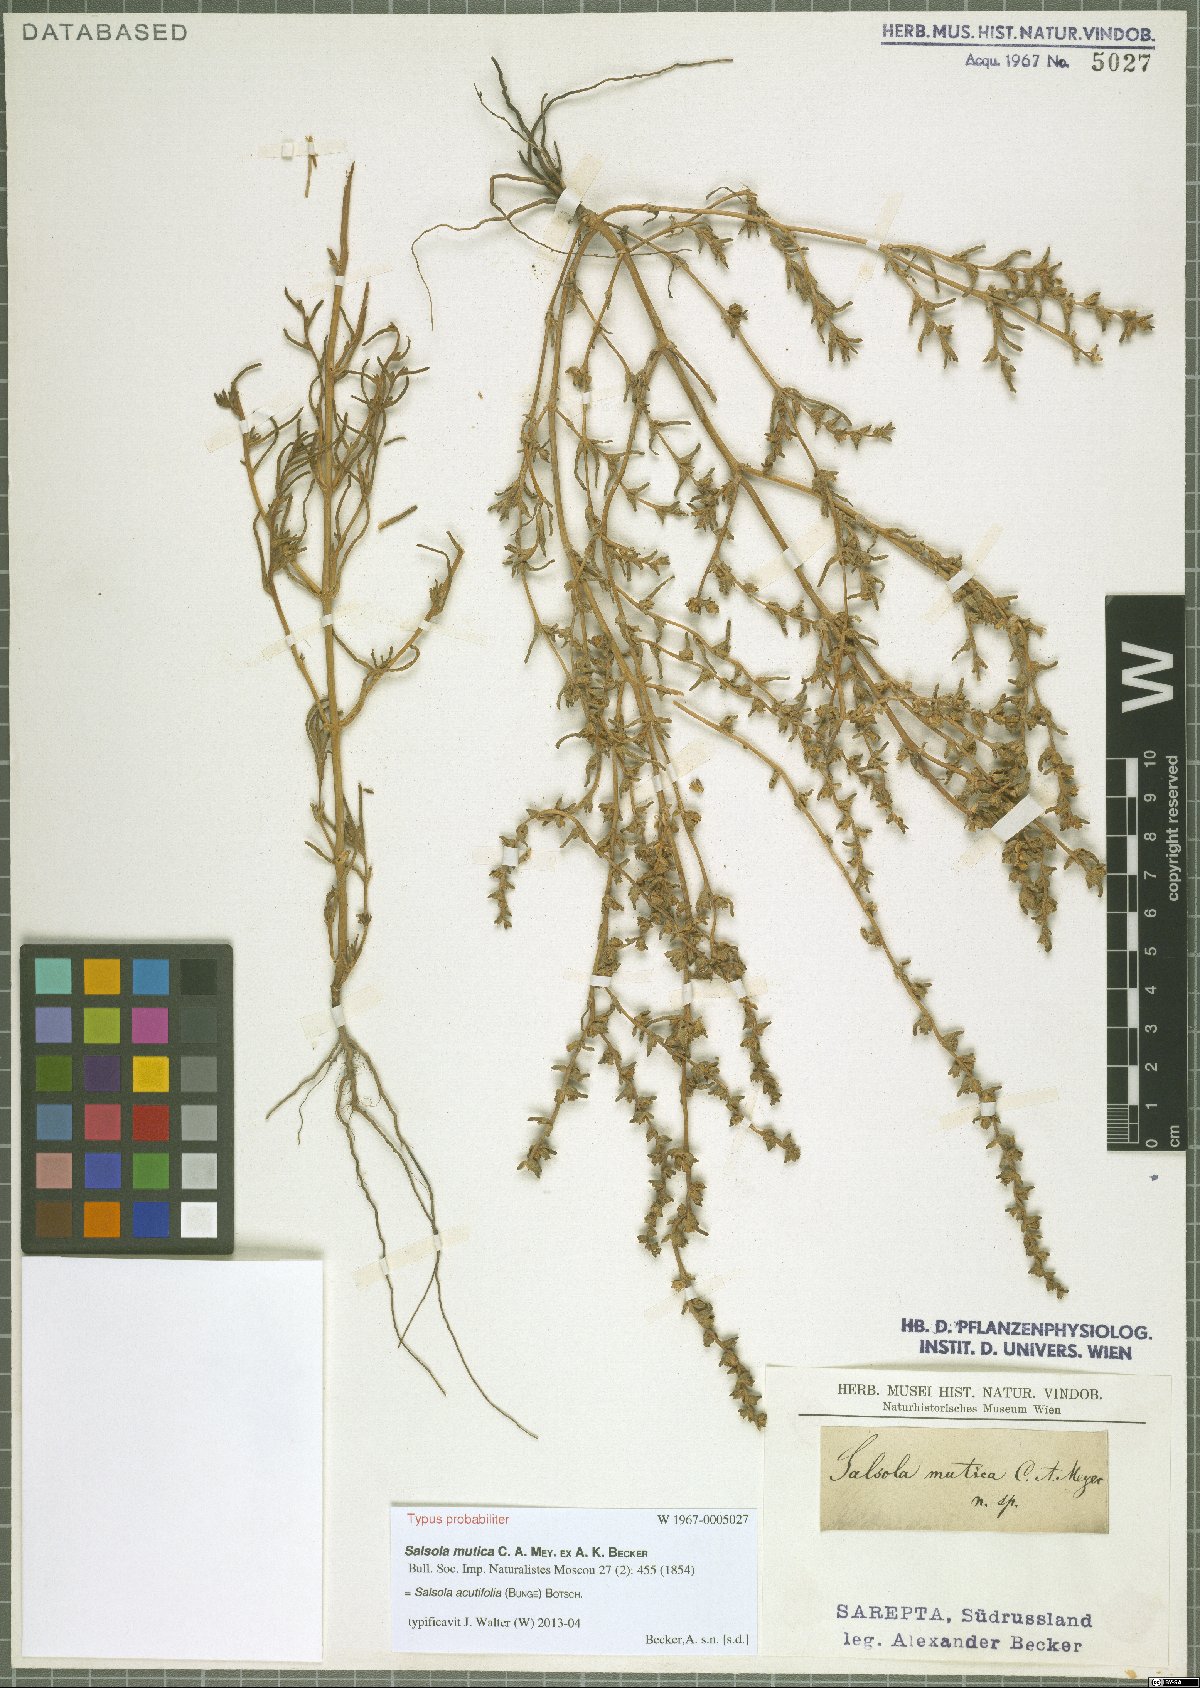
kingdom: Plantae
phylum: Tracheophyta
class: Magnoliopsida
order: Caryophyllales
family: Amaranthaceae
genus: Soda
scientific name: Soda acutifolia
